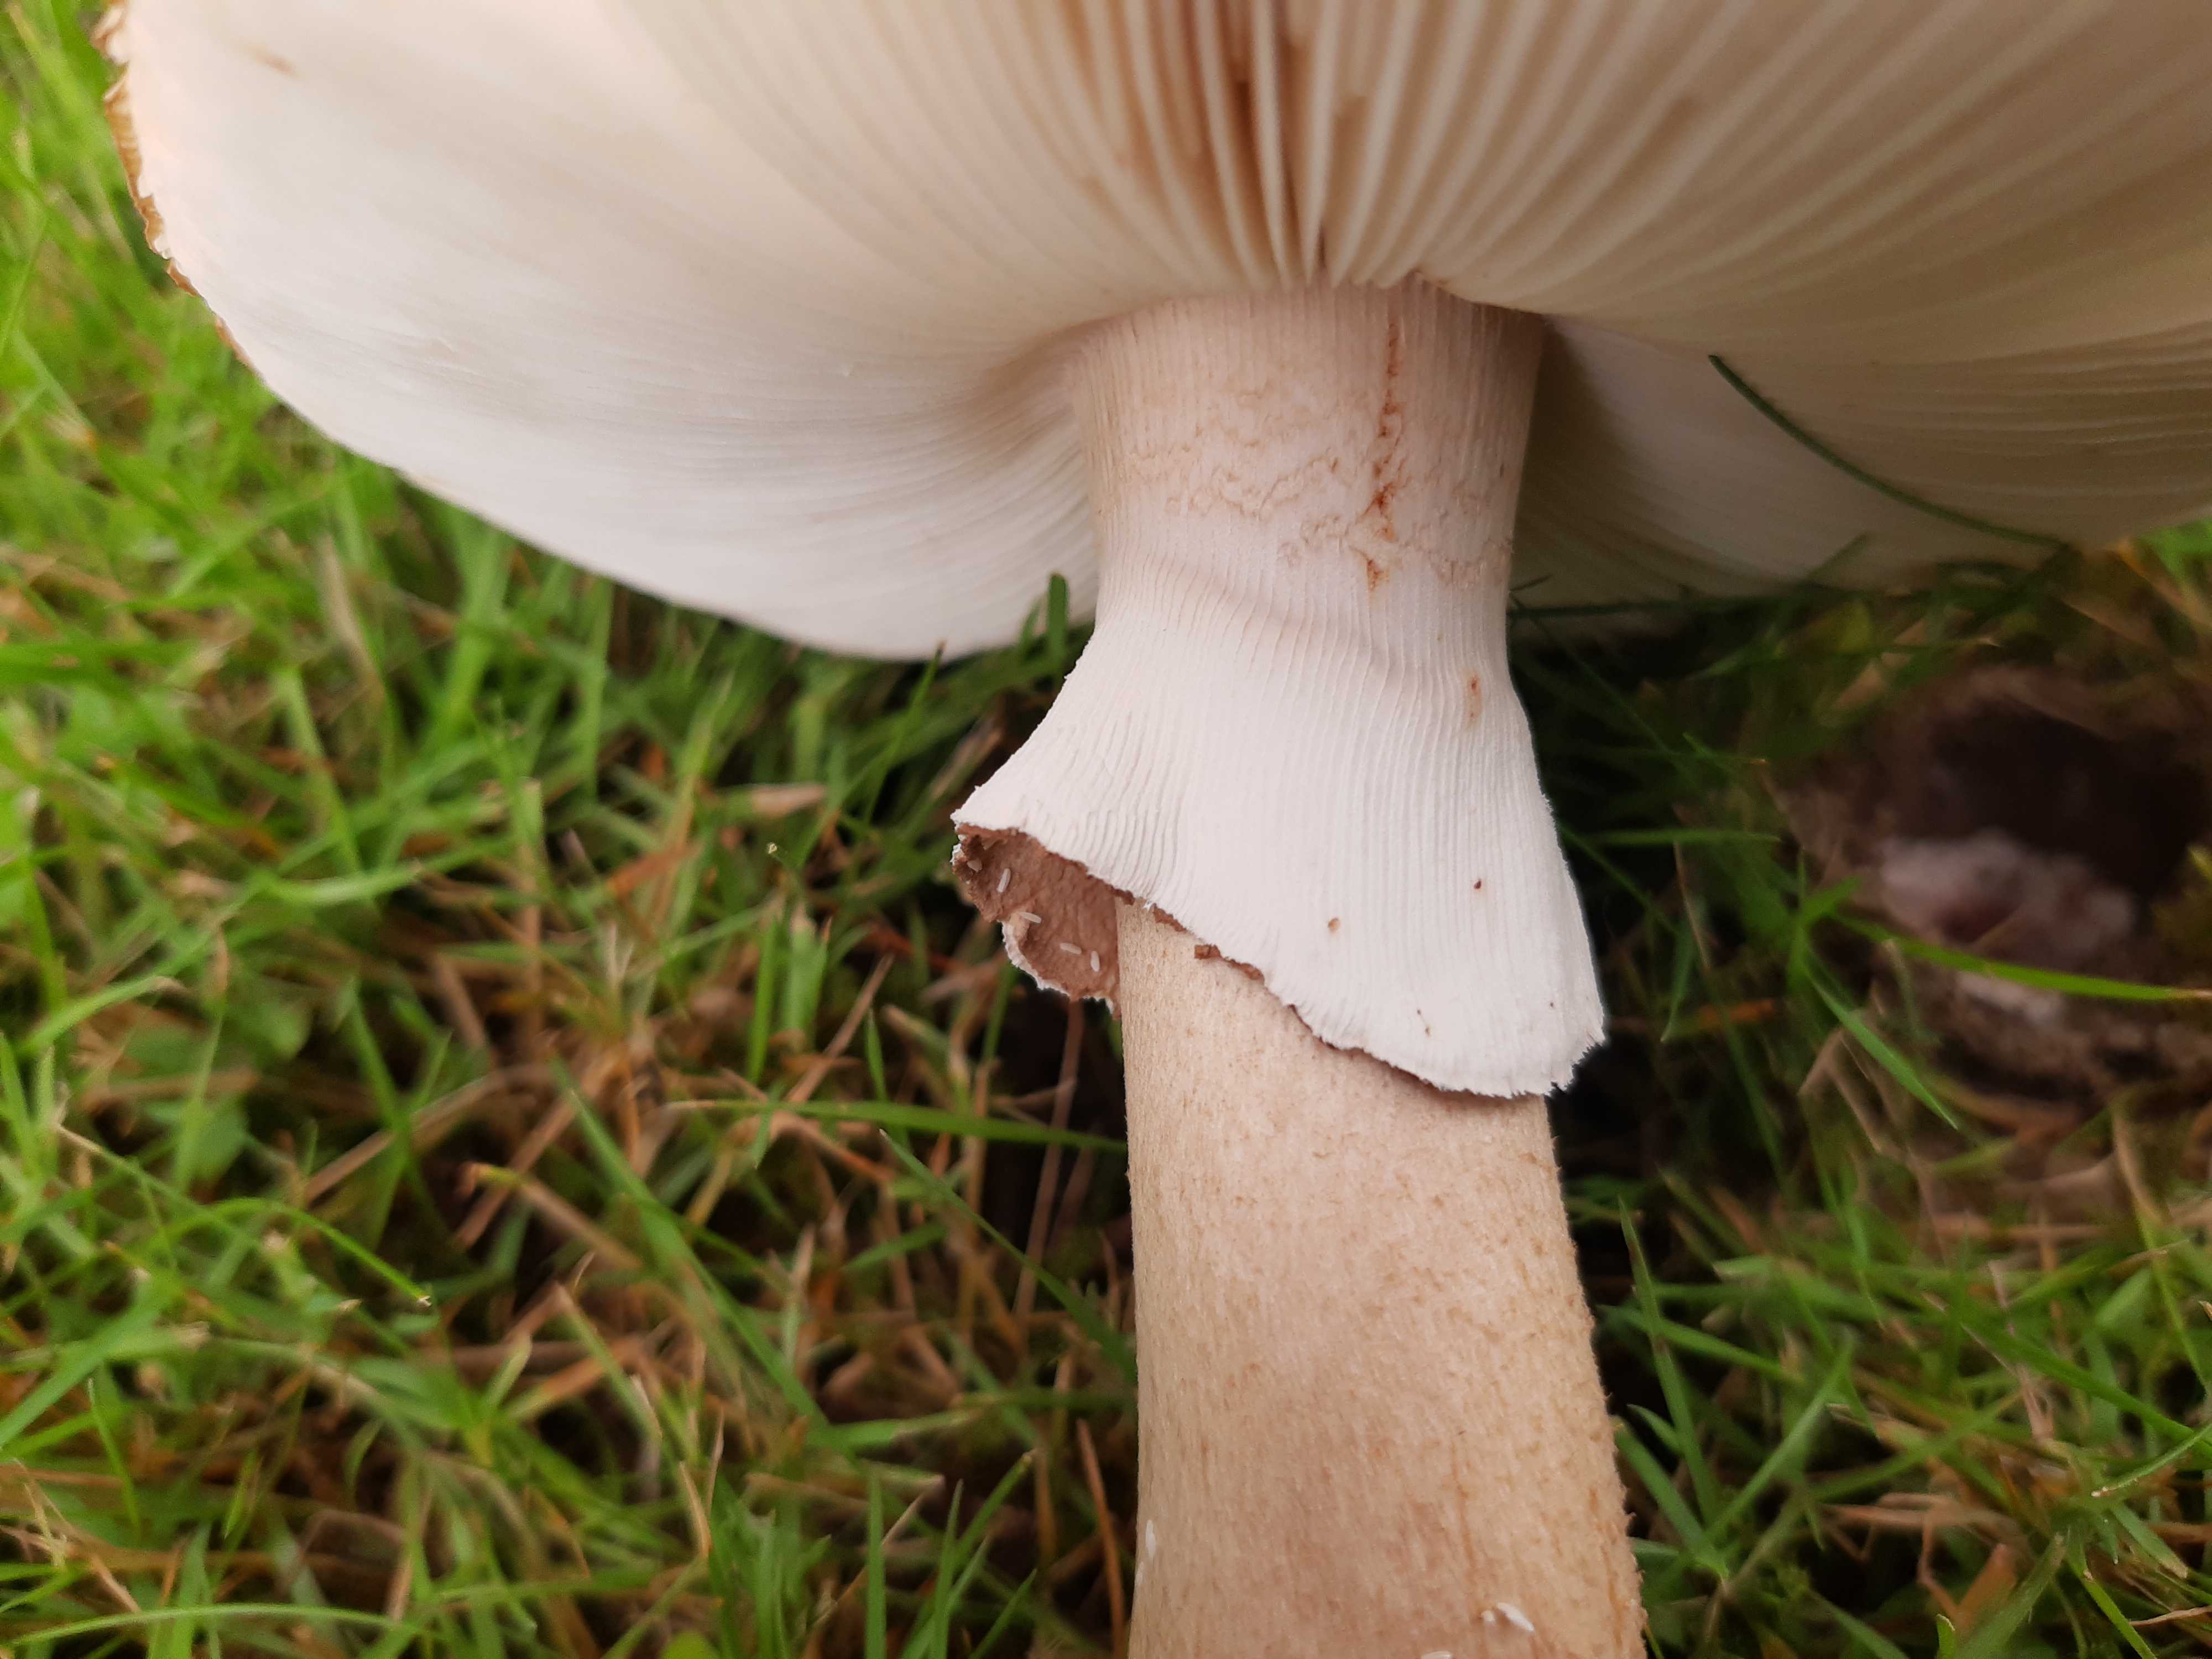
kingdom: Fungi
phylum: Basidiomycota
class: Agaricomycetes
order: Agaricales
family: Amanitaceae
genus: Amanita
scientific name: Amanita rubescens
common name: rødmende fluesvamp
